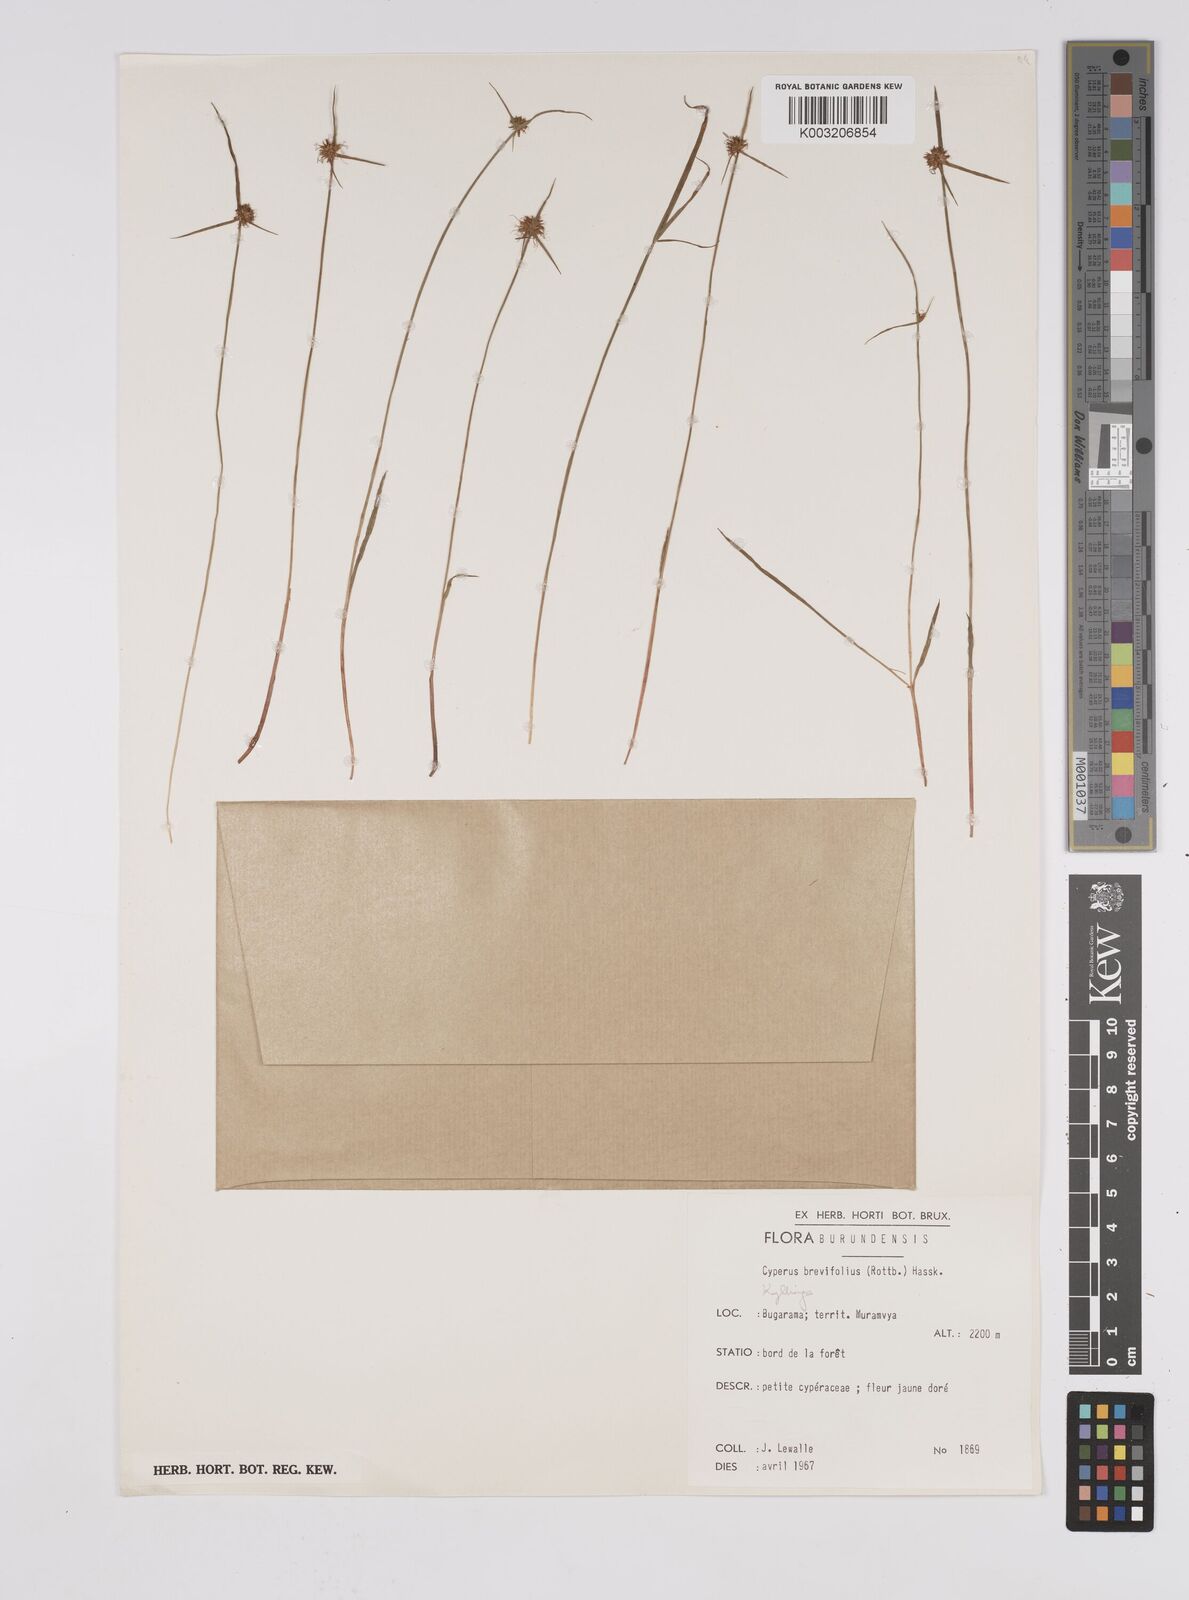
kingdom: Plantae
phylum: Tracheophyta
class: Liliopsida
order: Poales
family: Cyperaceae
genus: Cyperus
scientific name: Cyperus erectus
